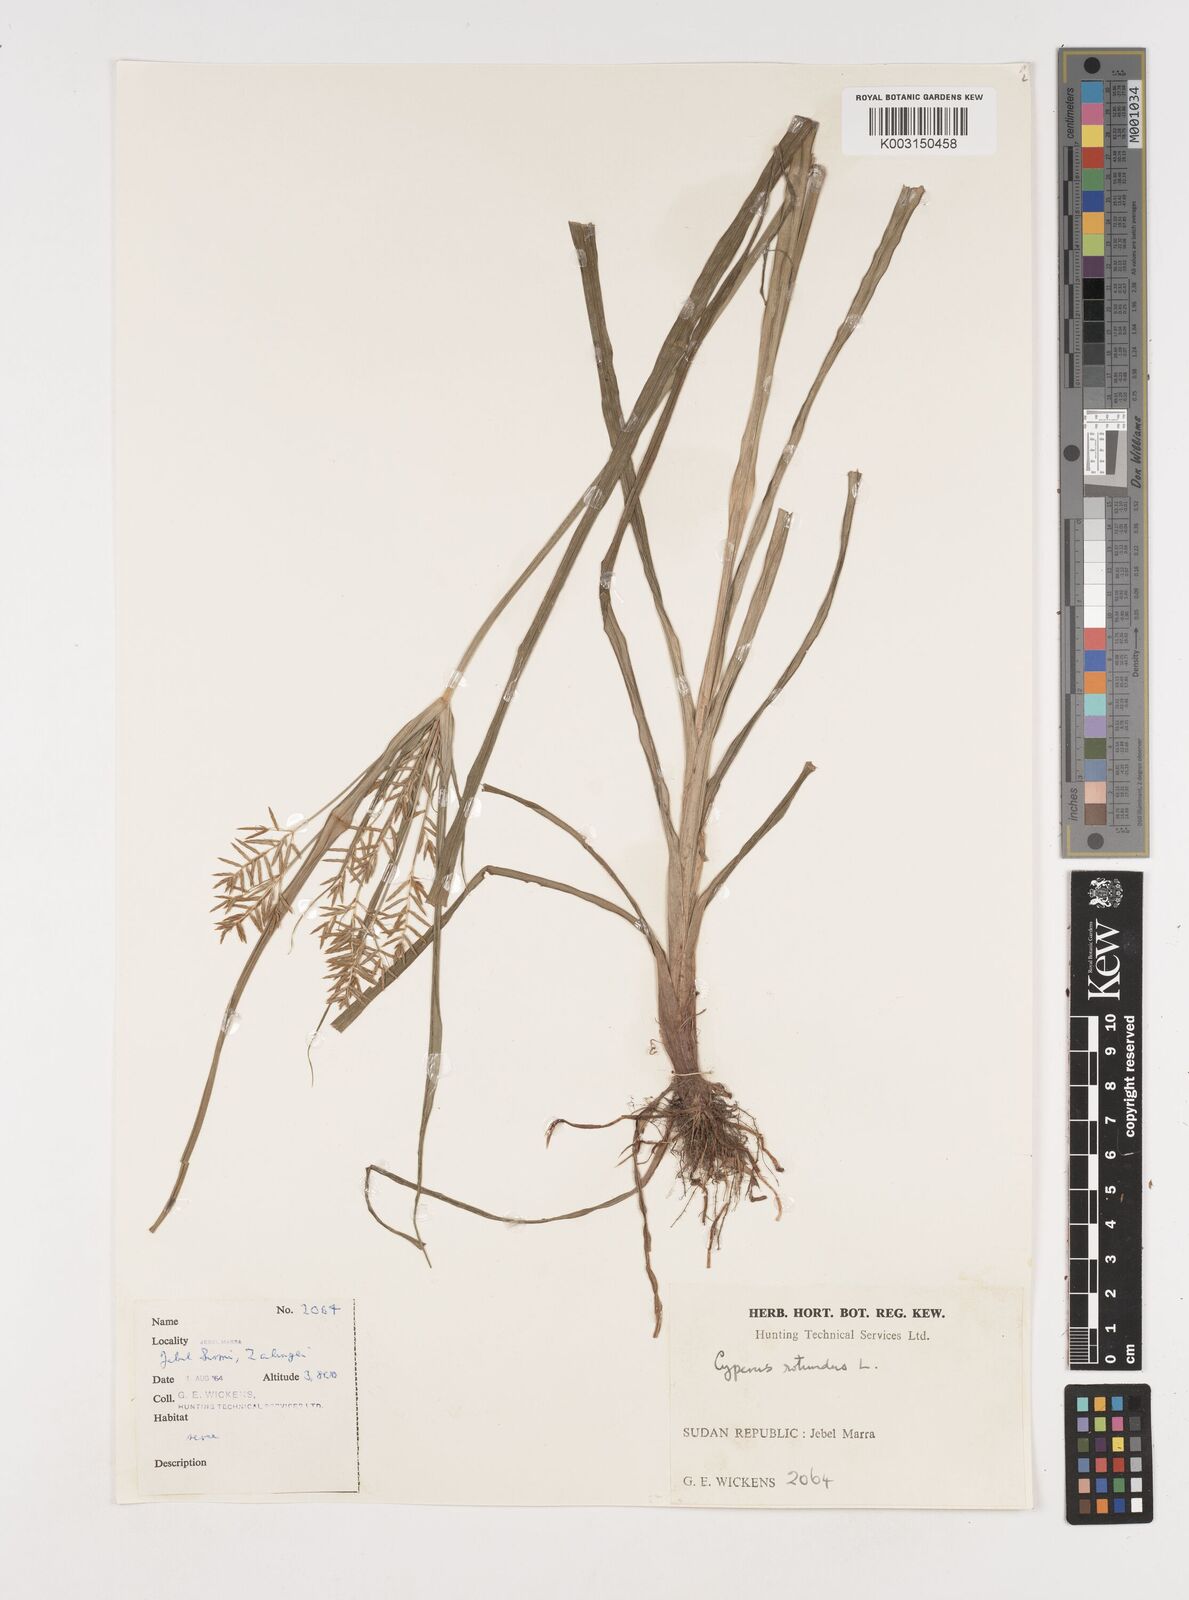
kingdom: Plantae
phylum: Tracheophyta
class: Liliopsida
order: Poales
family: Cyperaceae
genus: Cyperus
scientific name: Cyperus rotundus
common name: Nutgrass
